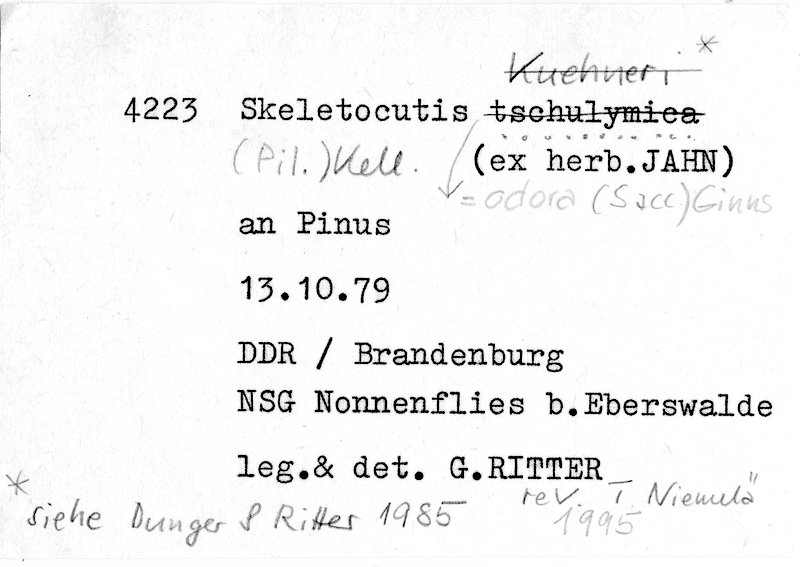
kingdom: Fungi
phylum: Basidiomycota
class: Agaricomycetes
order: Polyporales
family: Incrustoporiaceae
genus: Tyromyces
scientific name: Tyromyces odorus
